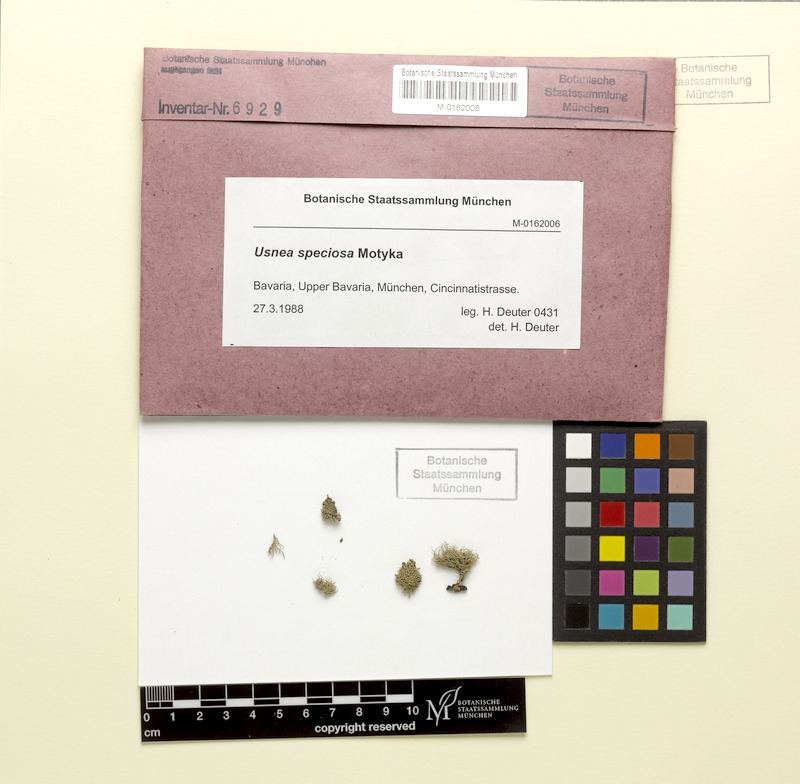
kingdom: Fungi
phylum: Ascomycota
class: Lecanoromycetes
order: Lecanorales
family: Parmeliaceae
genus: Usnea
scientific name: Usnea speciosa
